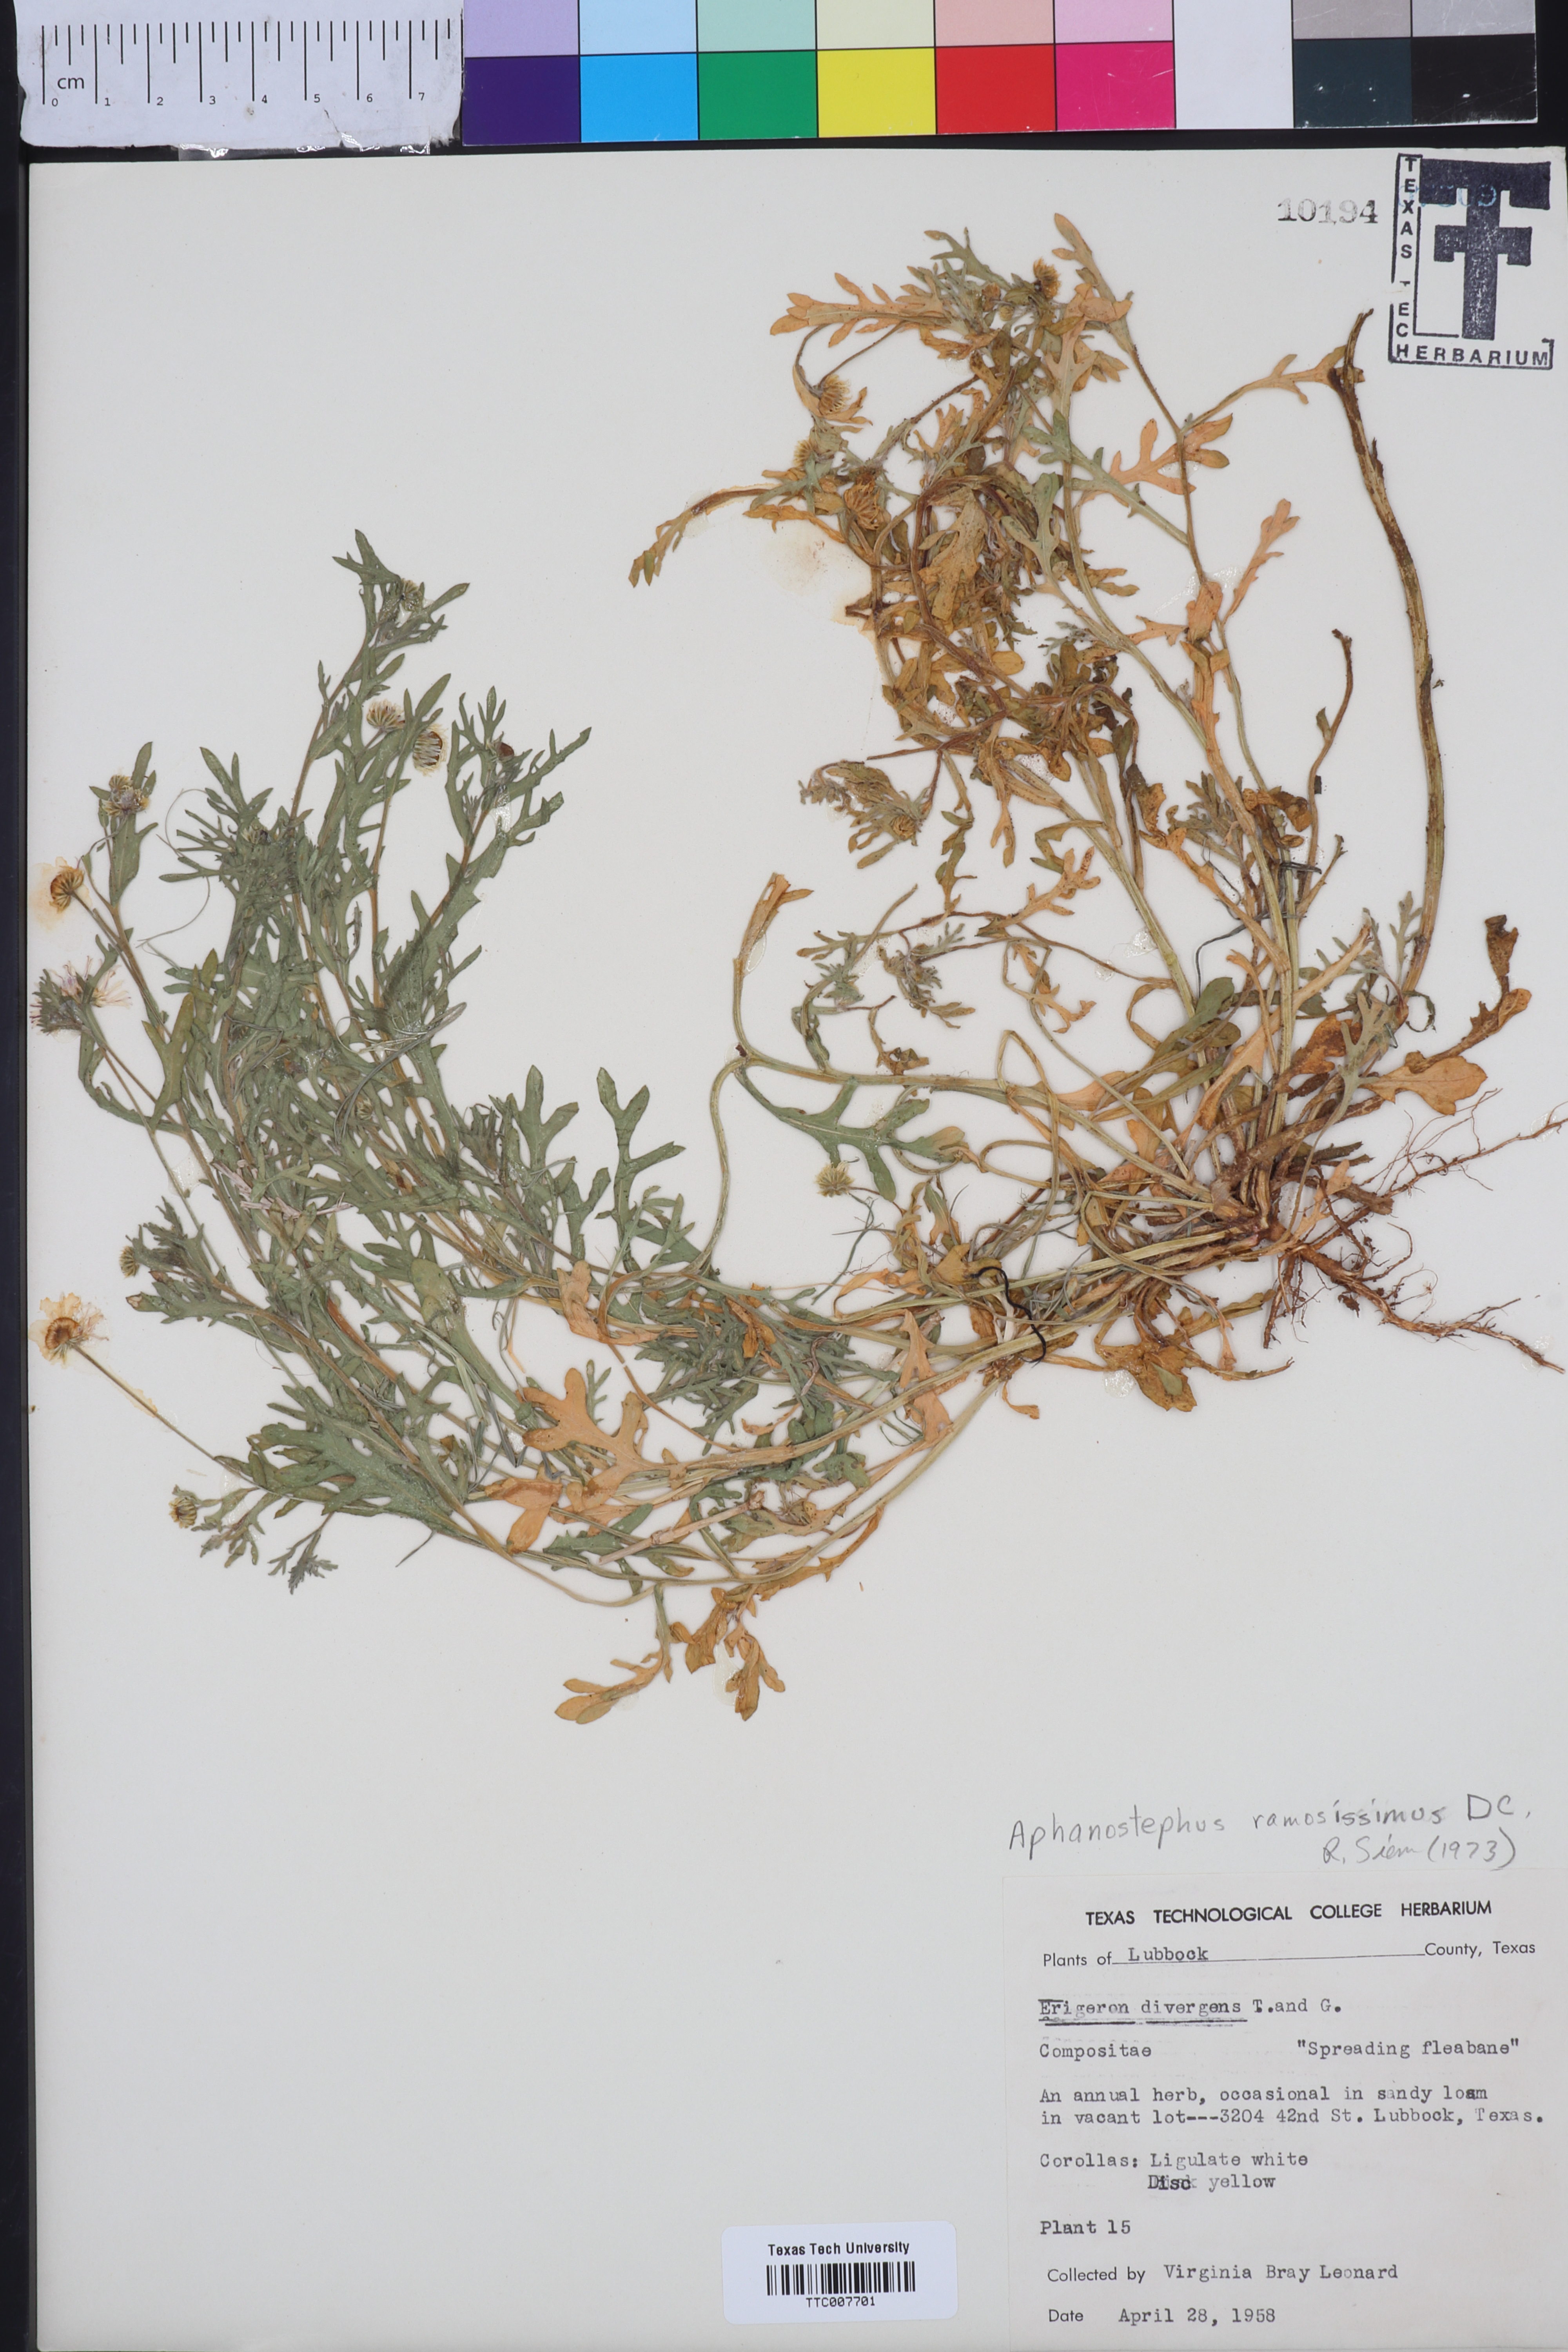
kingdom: Plantae
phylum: Tracheophyta
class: Magnoliopsida
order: Asterales
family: Asteraceae
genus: Aphanostephus
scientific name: Aphanostephus ramosissimus
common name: Plains lazy daisy
